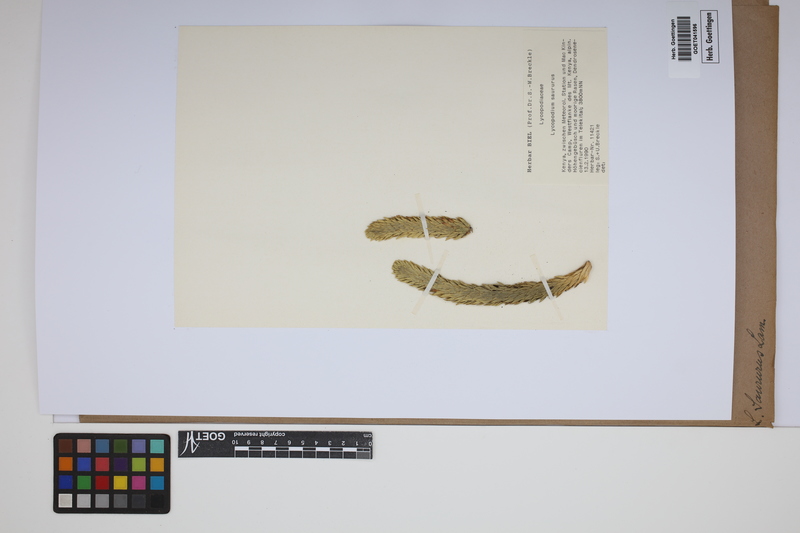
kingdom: Plantae
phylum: Tracheophyta
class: Lycopodiopsida
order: Lycopodiales
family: Lycopodiaceae
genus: Phlegmariurus
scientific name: Phlegmariurus saururus
